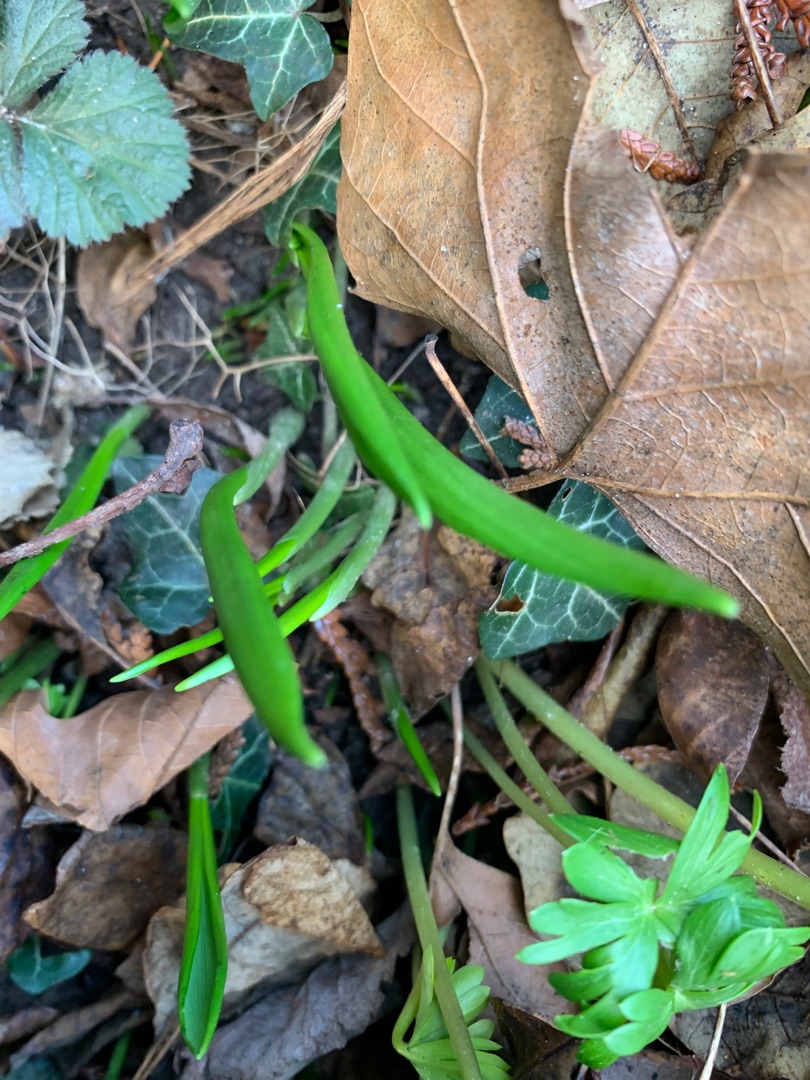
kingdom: Plantae
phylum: Tracheophyta
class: Liliopsida
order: Asparagales
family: Amaryllidaceae
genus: Allium
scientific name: Allium ursinum
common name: Rams-løg
